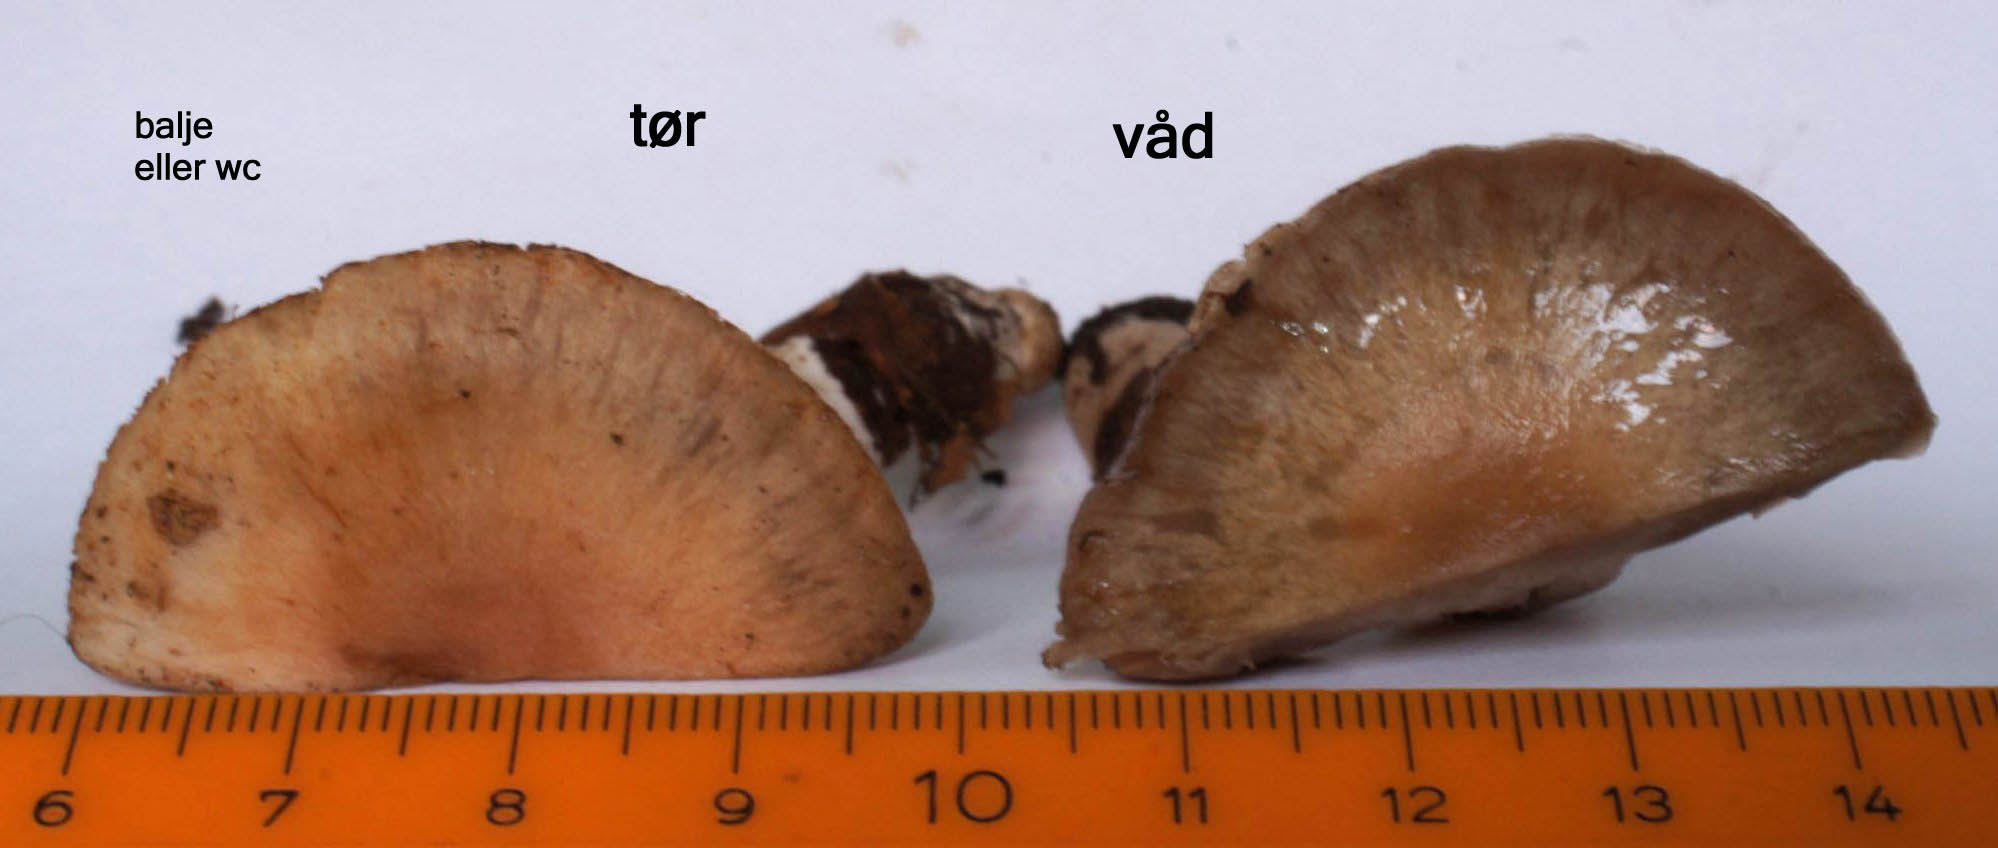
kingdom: Fungi
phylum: Basidiomycota
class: Agaricomycetes
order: Agaricales
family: Cortinariaceae
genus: Cortinarius
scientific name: Cortinarius turgidus
